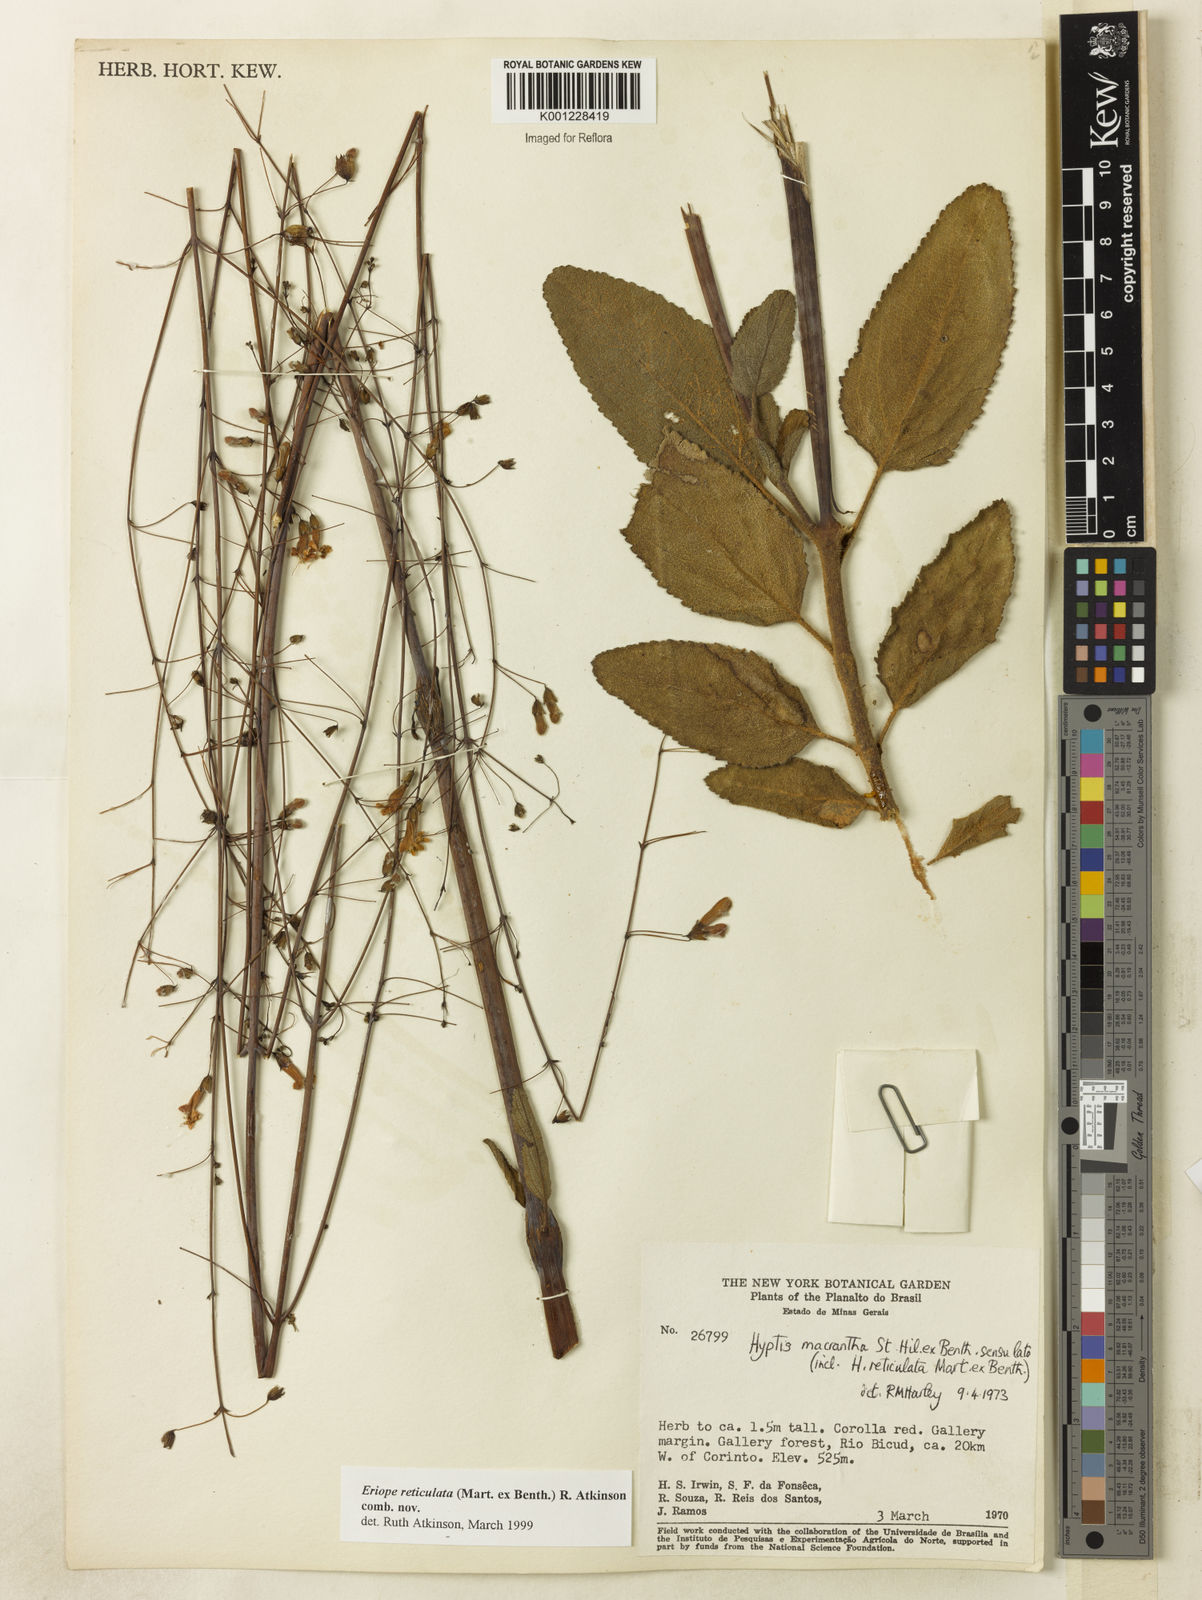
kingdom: Plantae
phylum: Tracheophyta
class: Magnoliopsida
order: Lamiales
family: Lamiaceae
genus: Hypenia
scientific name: Hypenia reticulata
